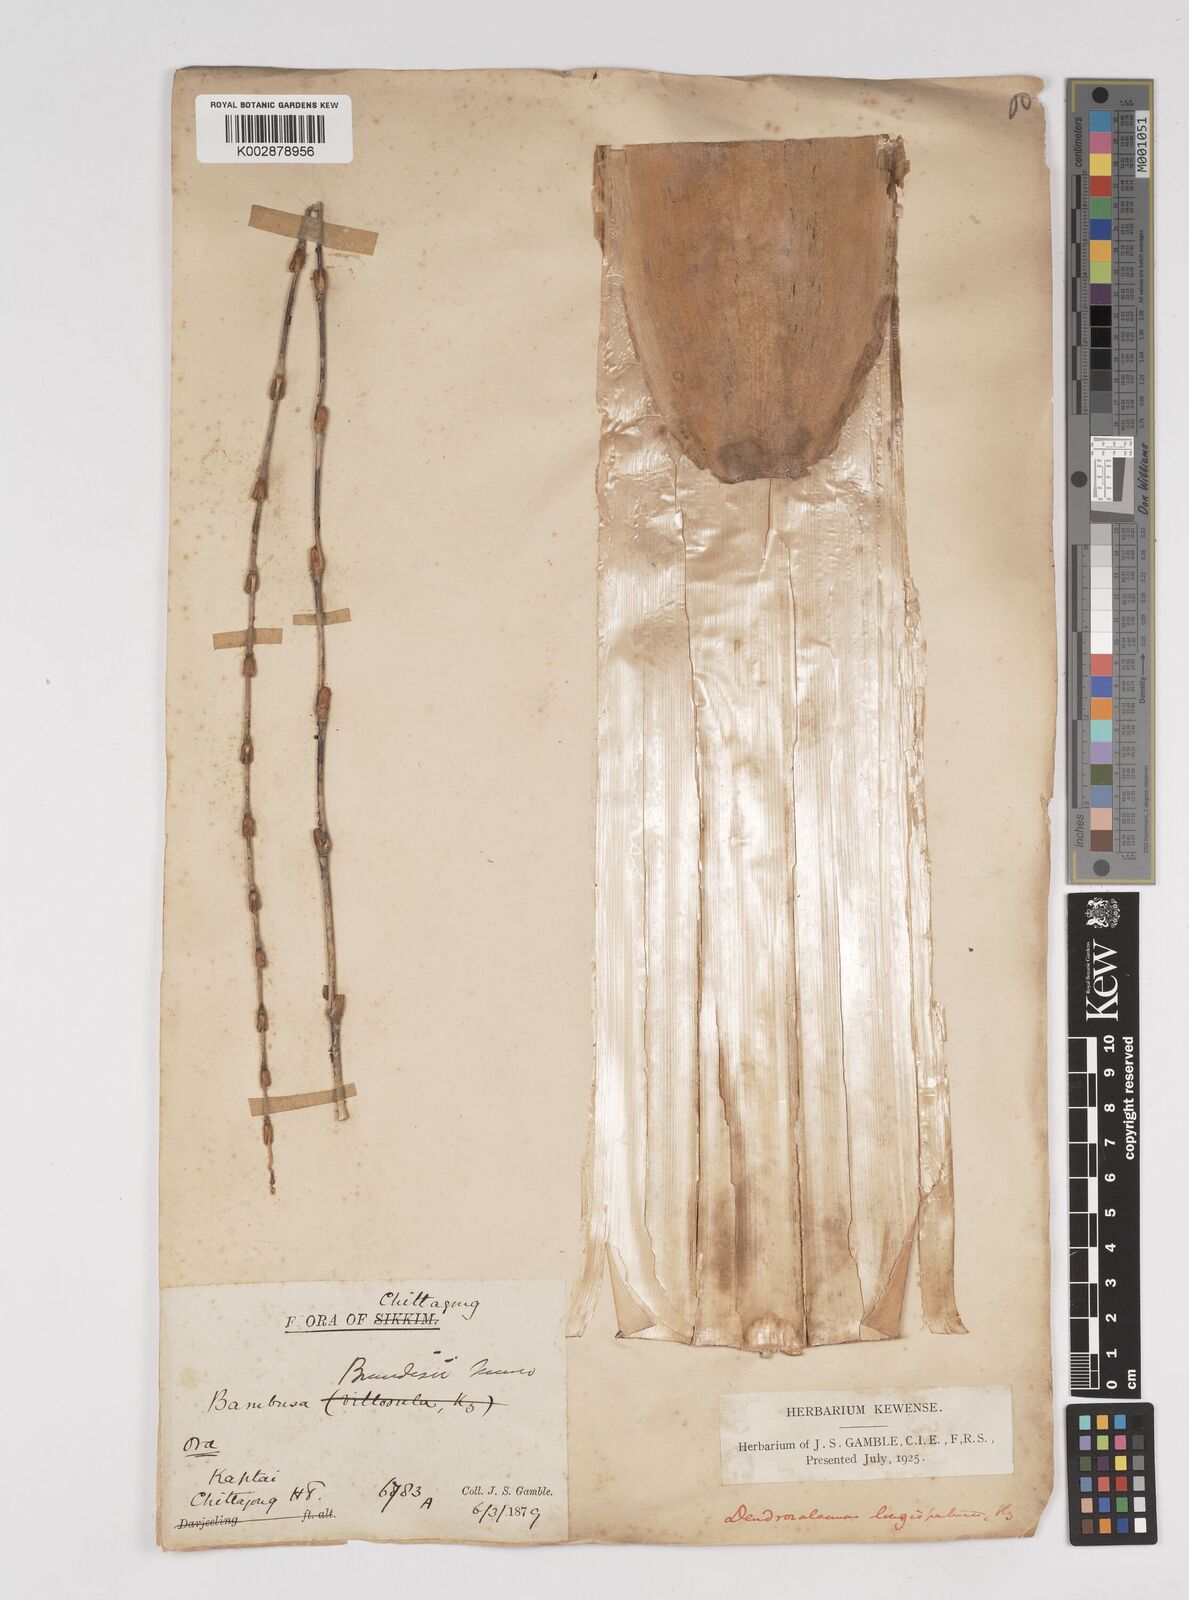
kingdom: Plantae
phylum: Tracheophyta
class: Liliopsida
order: Poales
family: Poaceae
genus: Dendrocalamus
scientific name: Dendrocalamus longispathus
